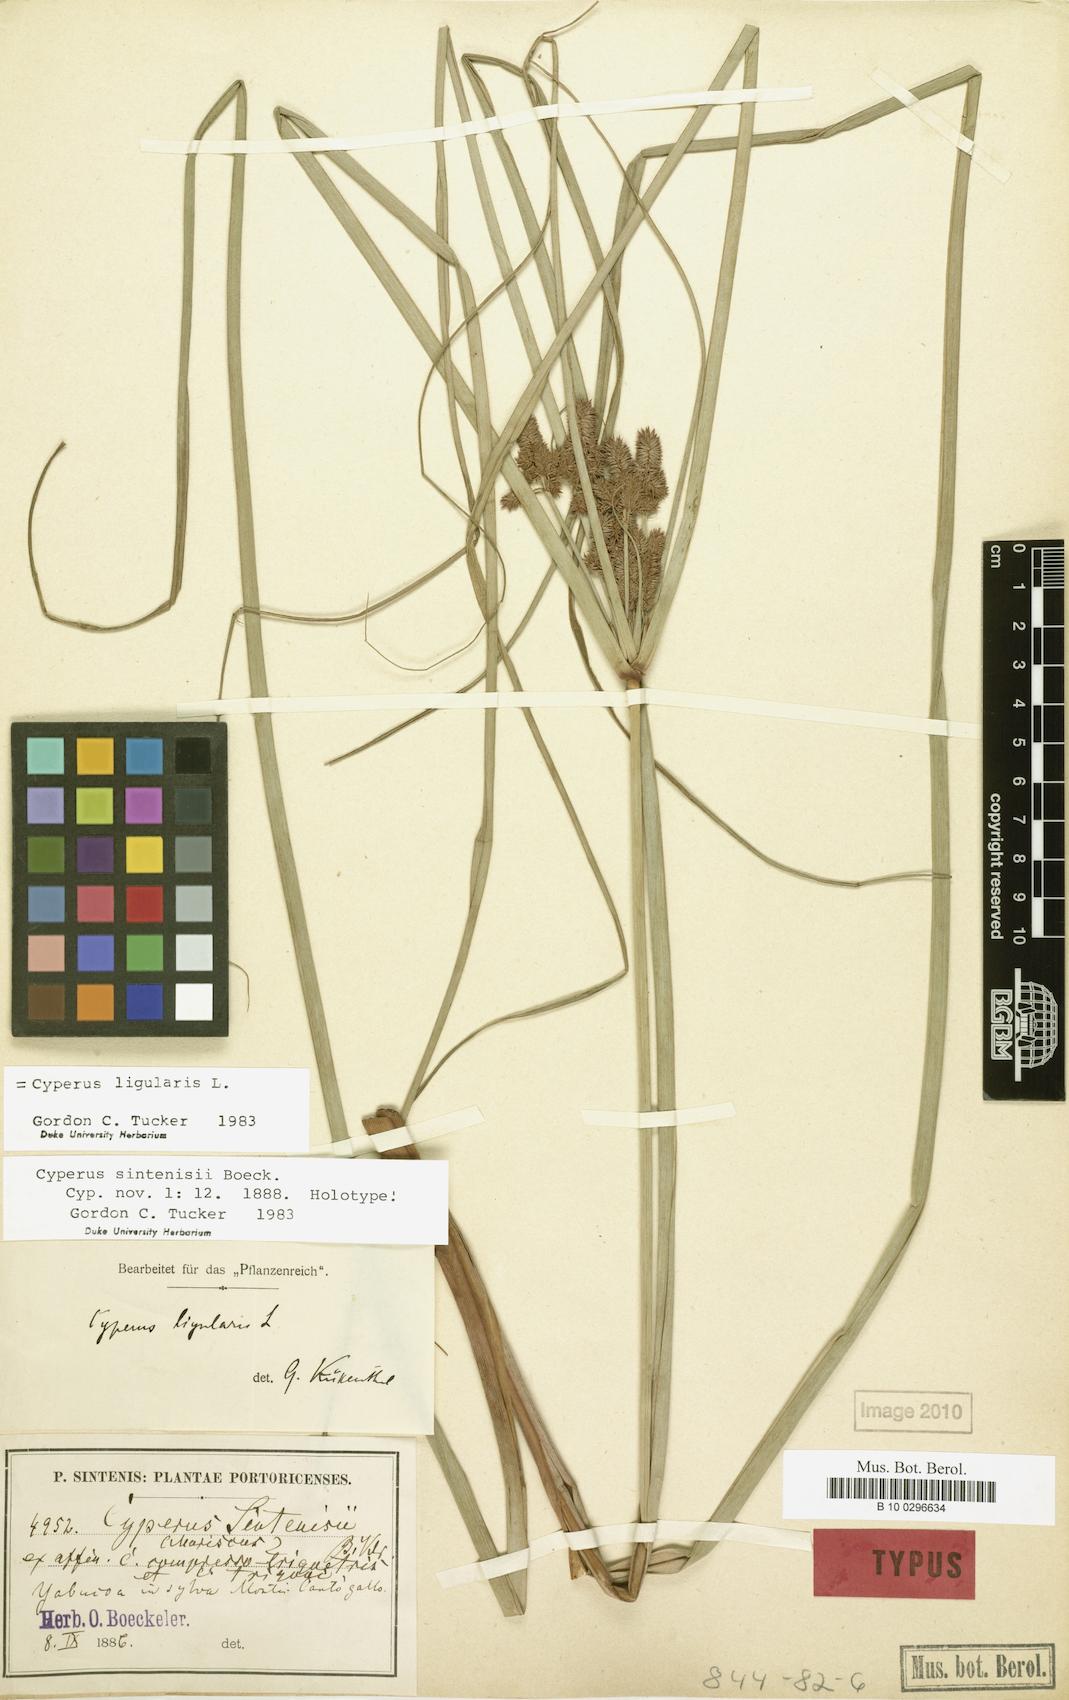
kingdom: Plantae
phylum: Tracheophyta
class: Liliopsida
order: Poales
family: Cyperaceae
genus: Cyperus
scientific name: Cyperus ligularis
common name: Swamp flat sedge
